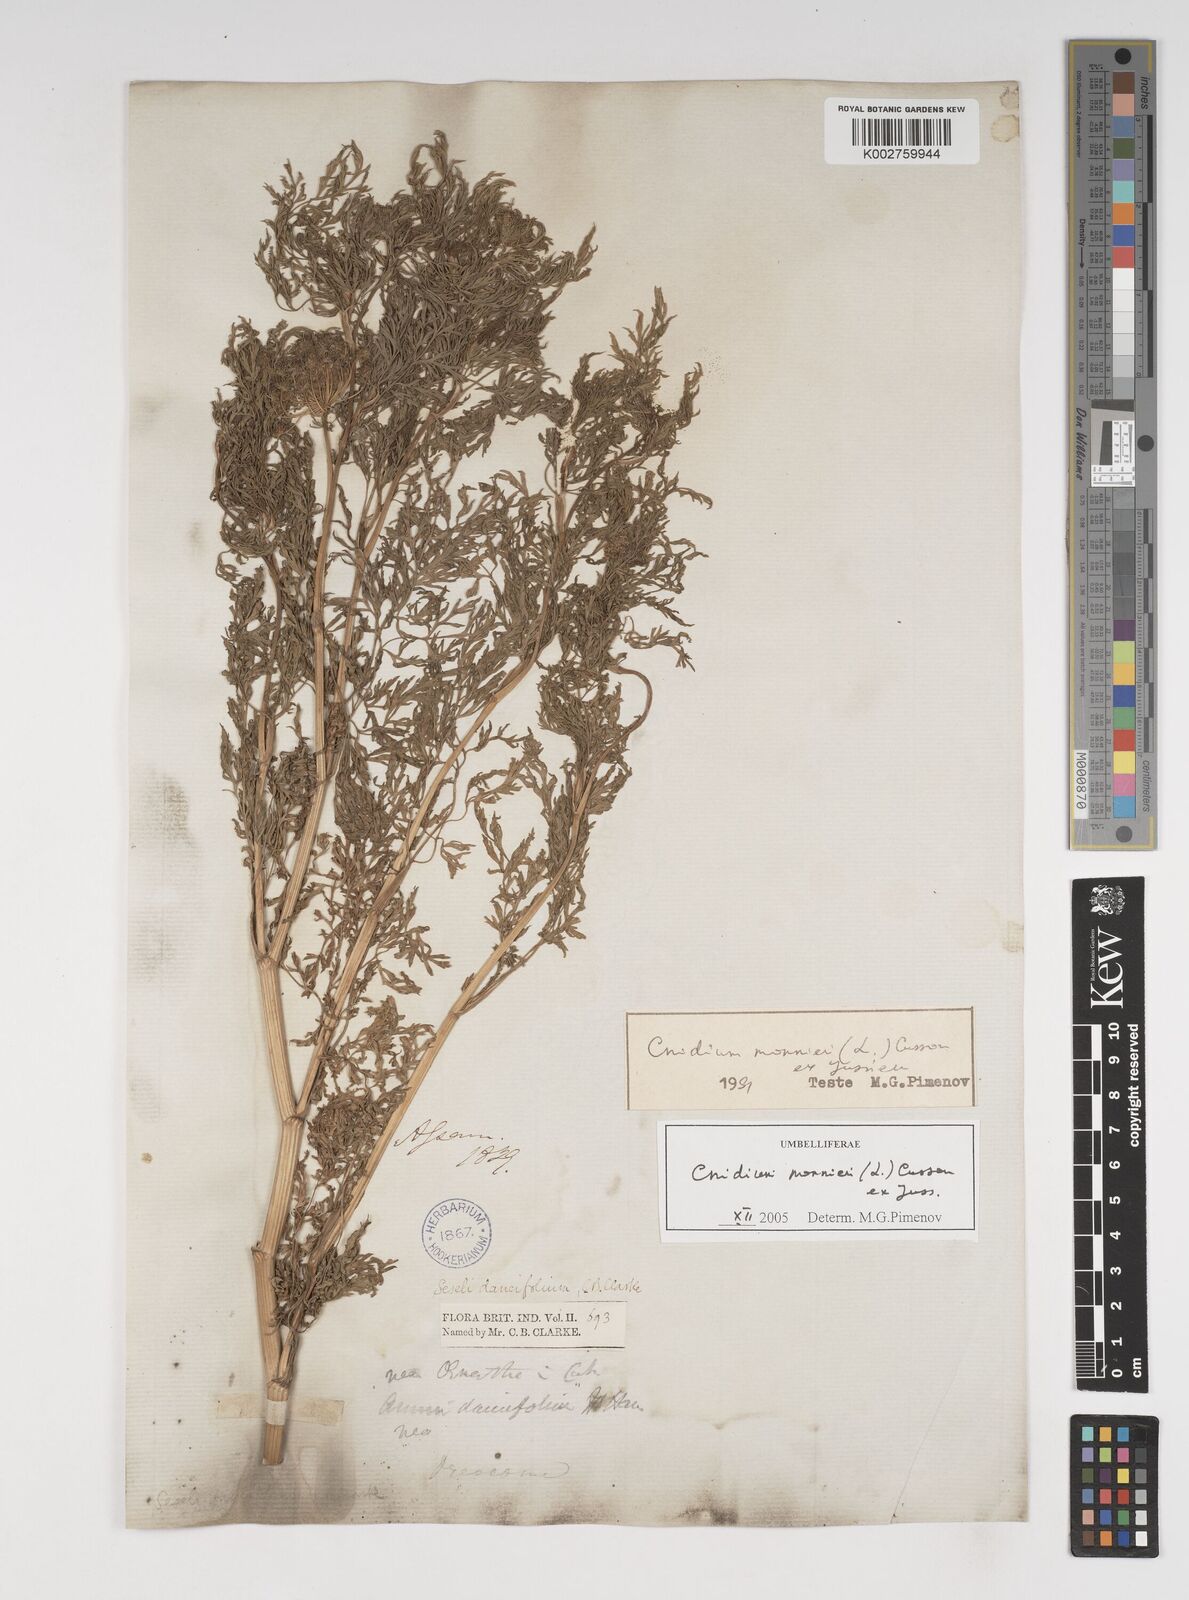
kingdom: Plantae
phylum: Tracheophyta
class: Magnoliopsida
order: Apiales
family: Apiaceae
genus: Cnidium
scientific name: Cnidium monnieri
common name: Monnier's snowparsley
